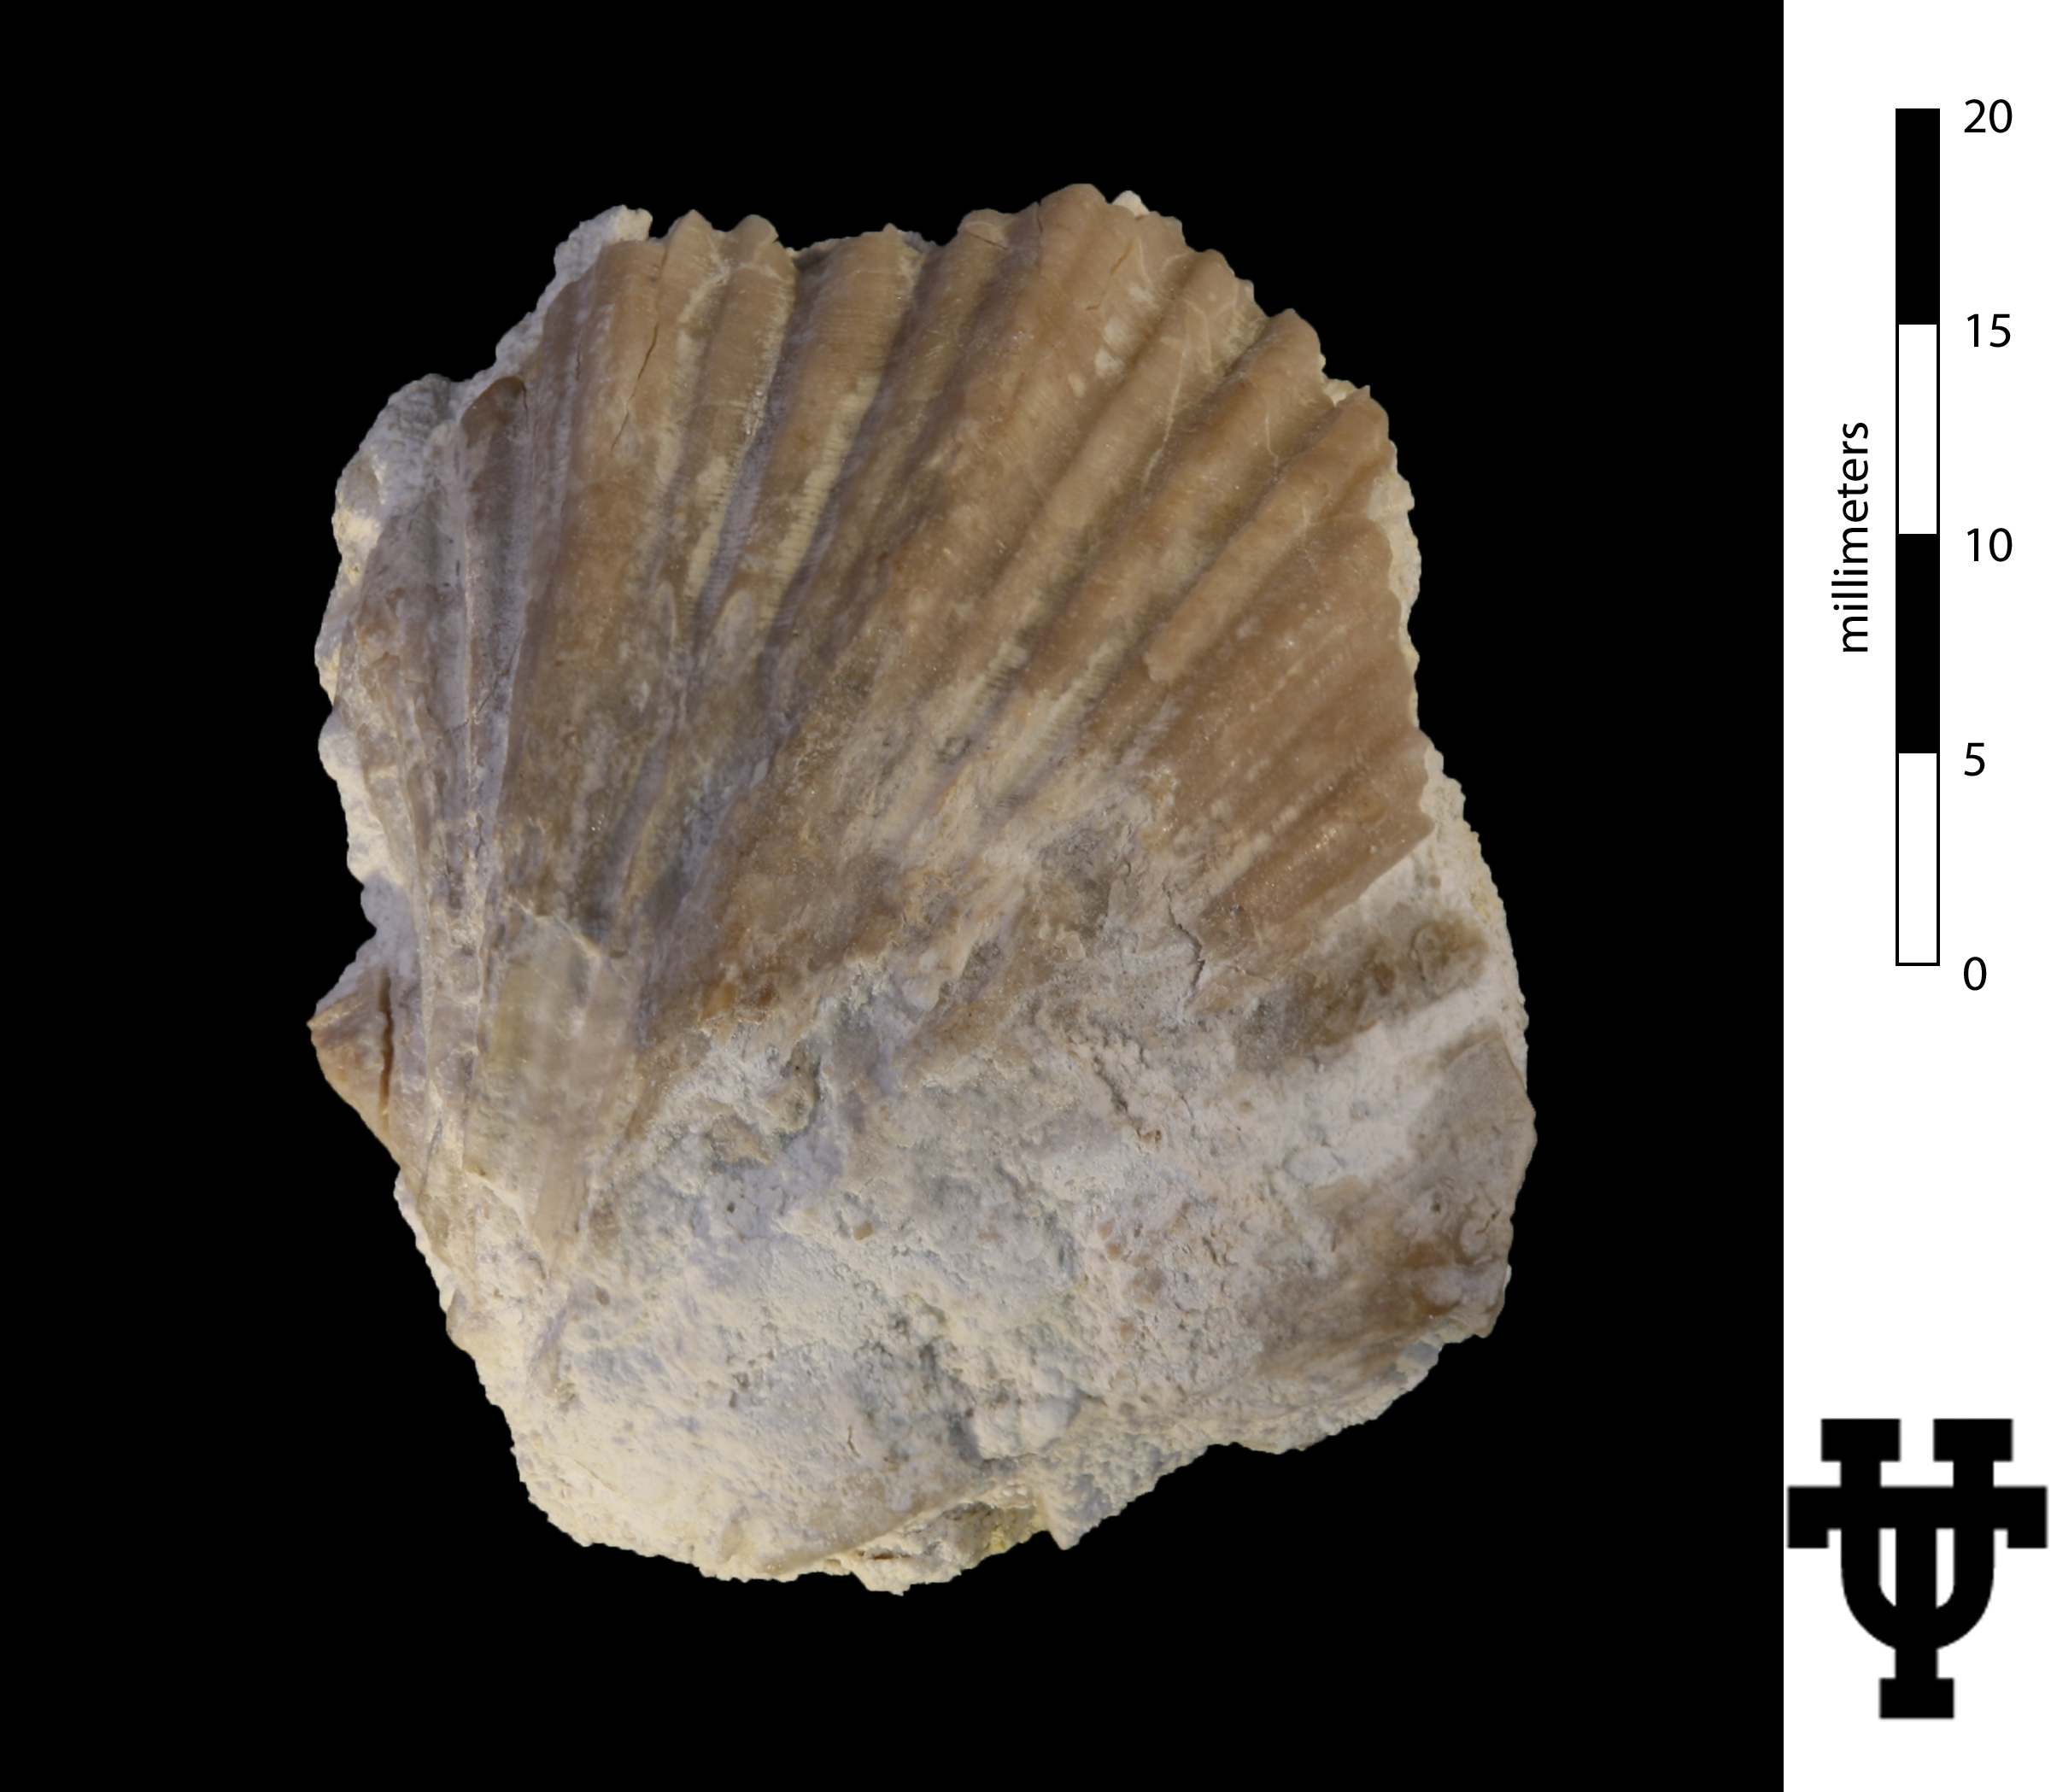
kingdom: Animalia
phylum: Mollusca
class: Bivalvia
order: Pectinida
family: Neitheidae
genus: Neithea
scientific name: Neithea austinensis
